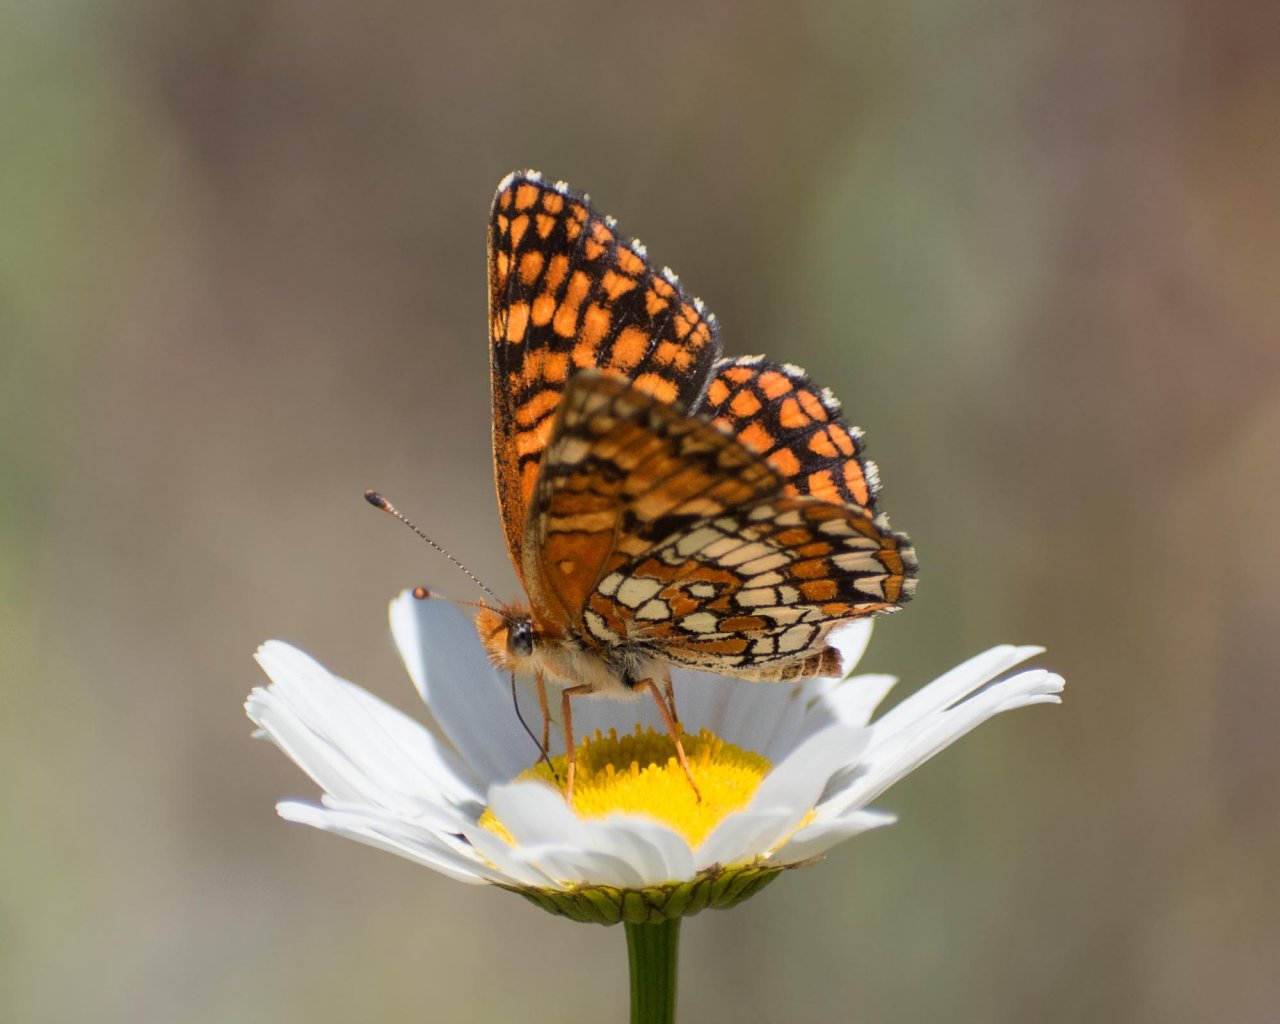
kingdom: Animalia
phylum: Arthropoda
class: Insecta
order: Lepidoptera
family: Nymphalidae
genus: Chlosyne
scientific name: Chlosyne palla
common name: Northern Checkerspot
